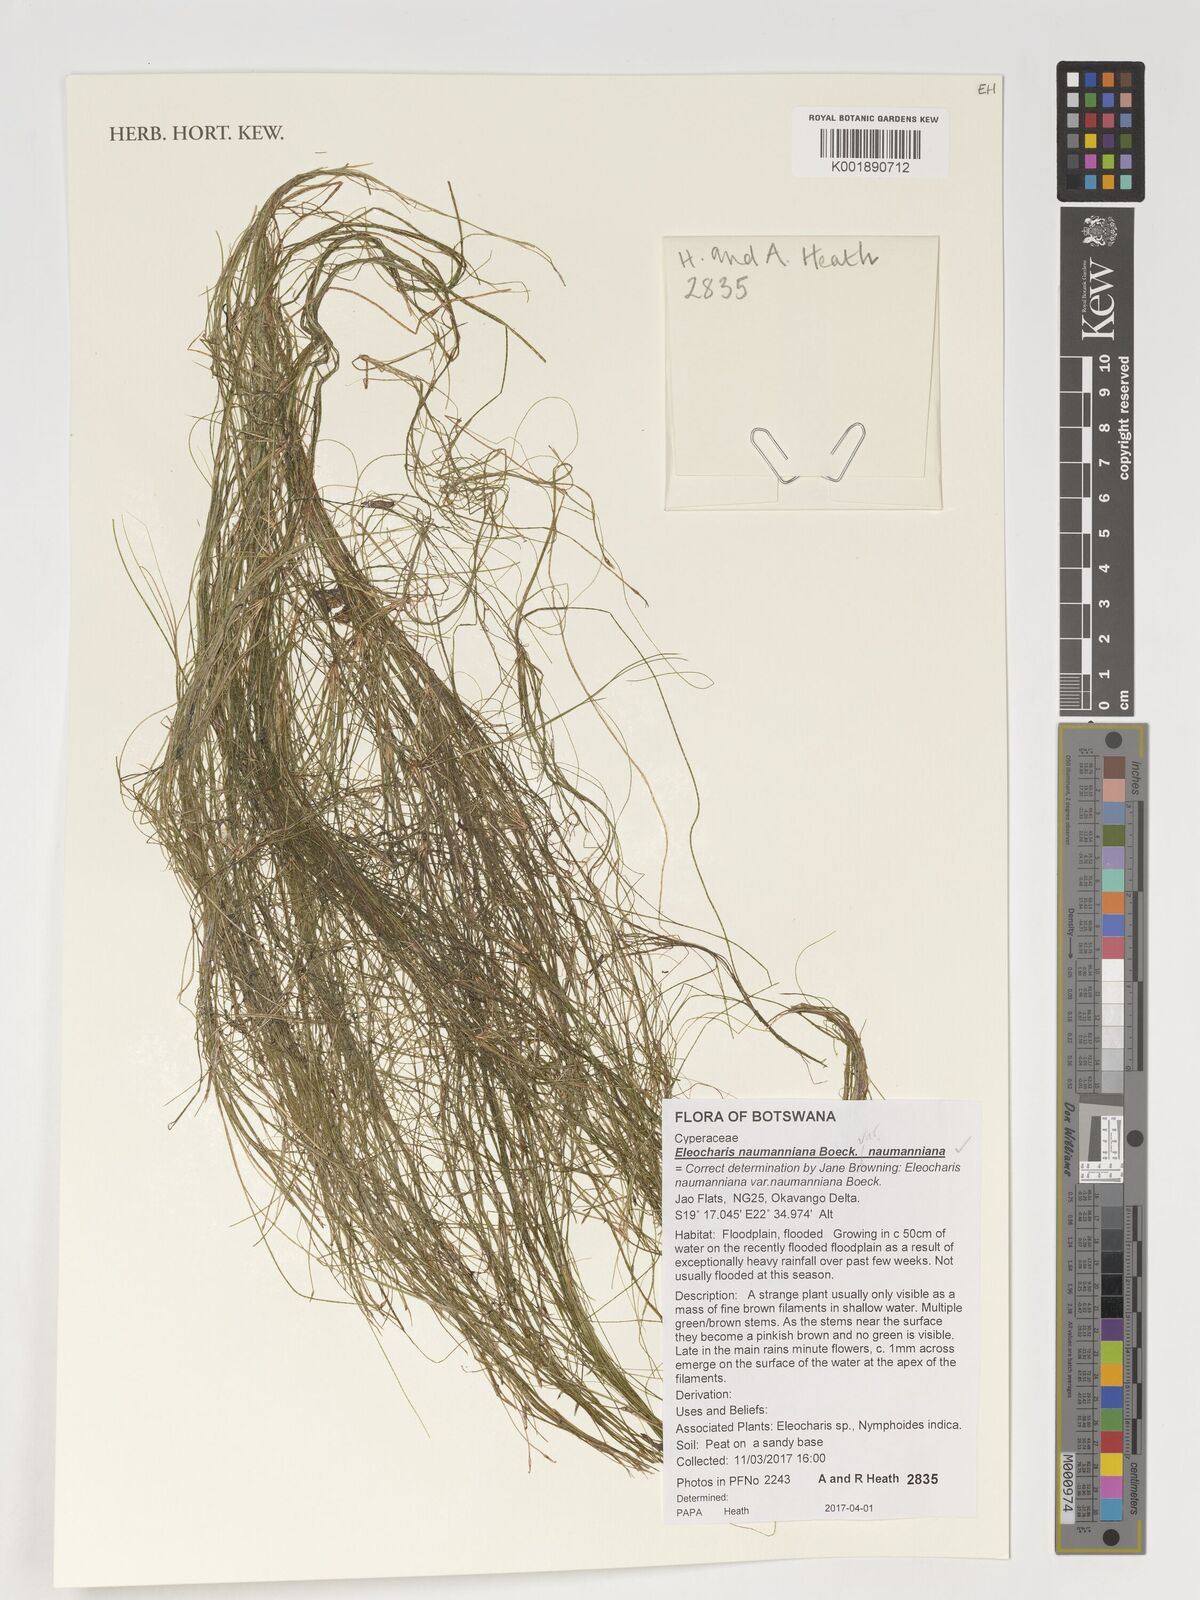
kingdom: Plantae
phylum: Tracheophyta
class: Liliopsida
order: Poales
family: Cyperaceae
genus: Eleocharis
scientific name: Eleocharis naumanniana
